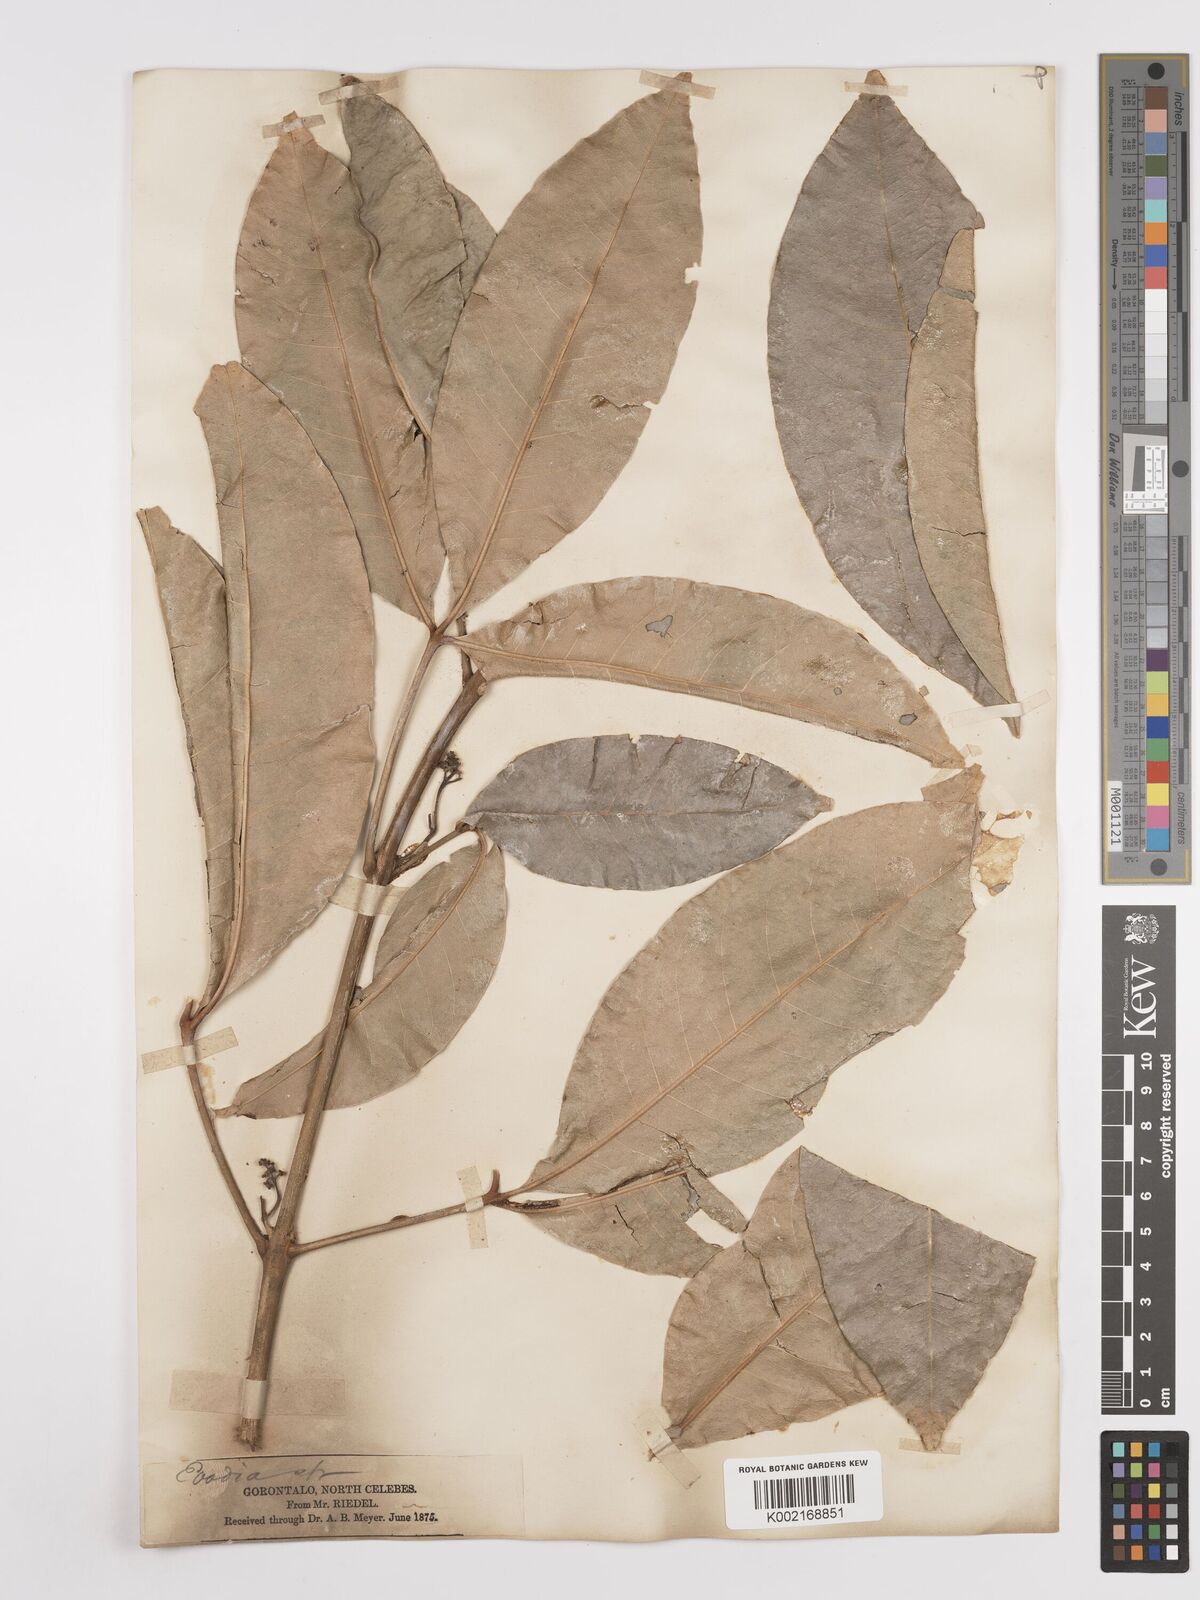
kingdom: Plantae
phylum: Tracheophyta
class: Magnoliopsida
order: Sapindales
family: Rutaceae
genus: Melicope
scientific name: Melicope triphylla
